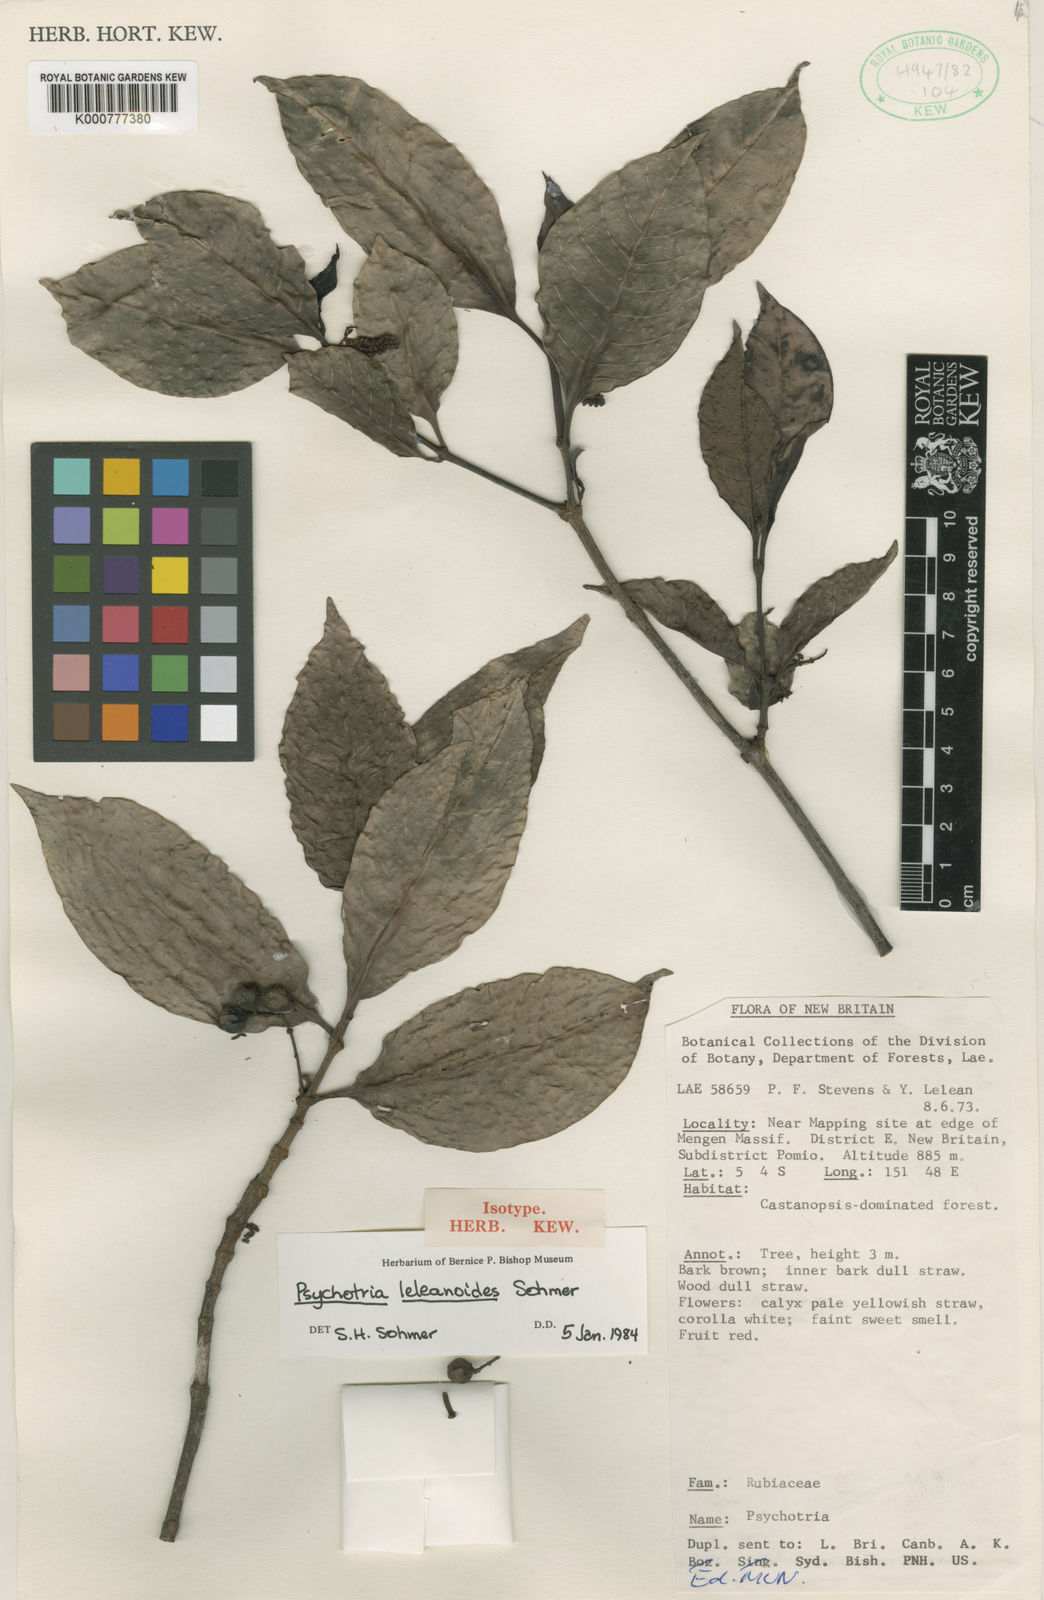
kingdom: Plantae
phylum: Tracheophyta
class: Magnoliopsida
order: Gentianales
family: Rubiaceae
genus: Psychotria
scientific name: Psychotria leleanoides
